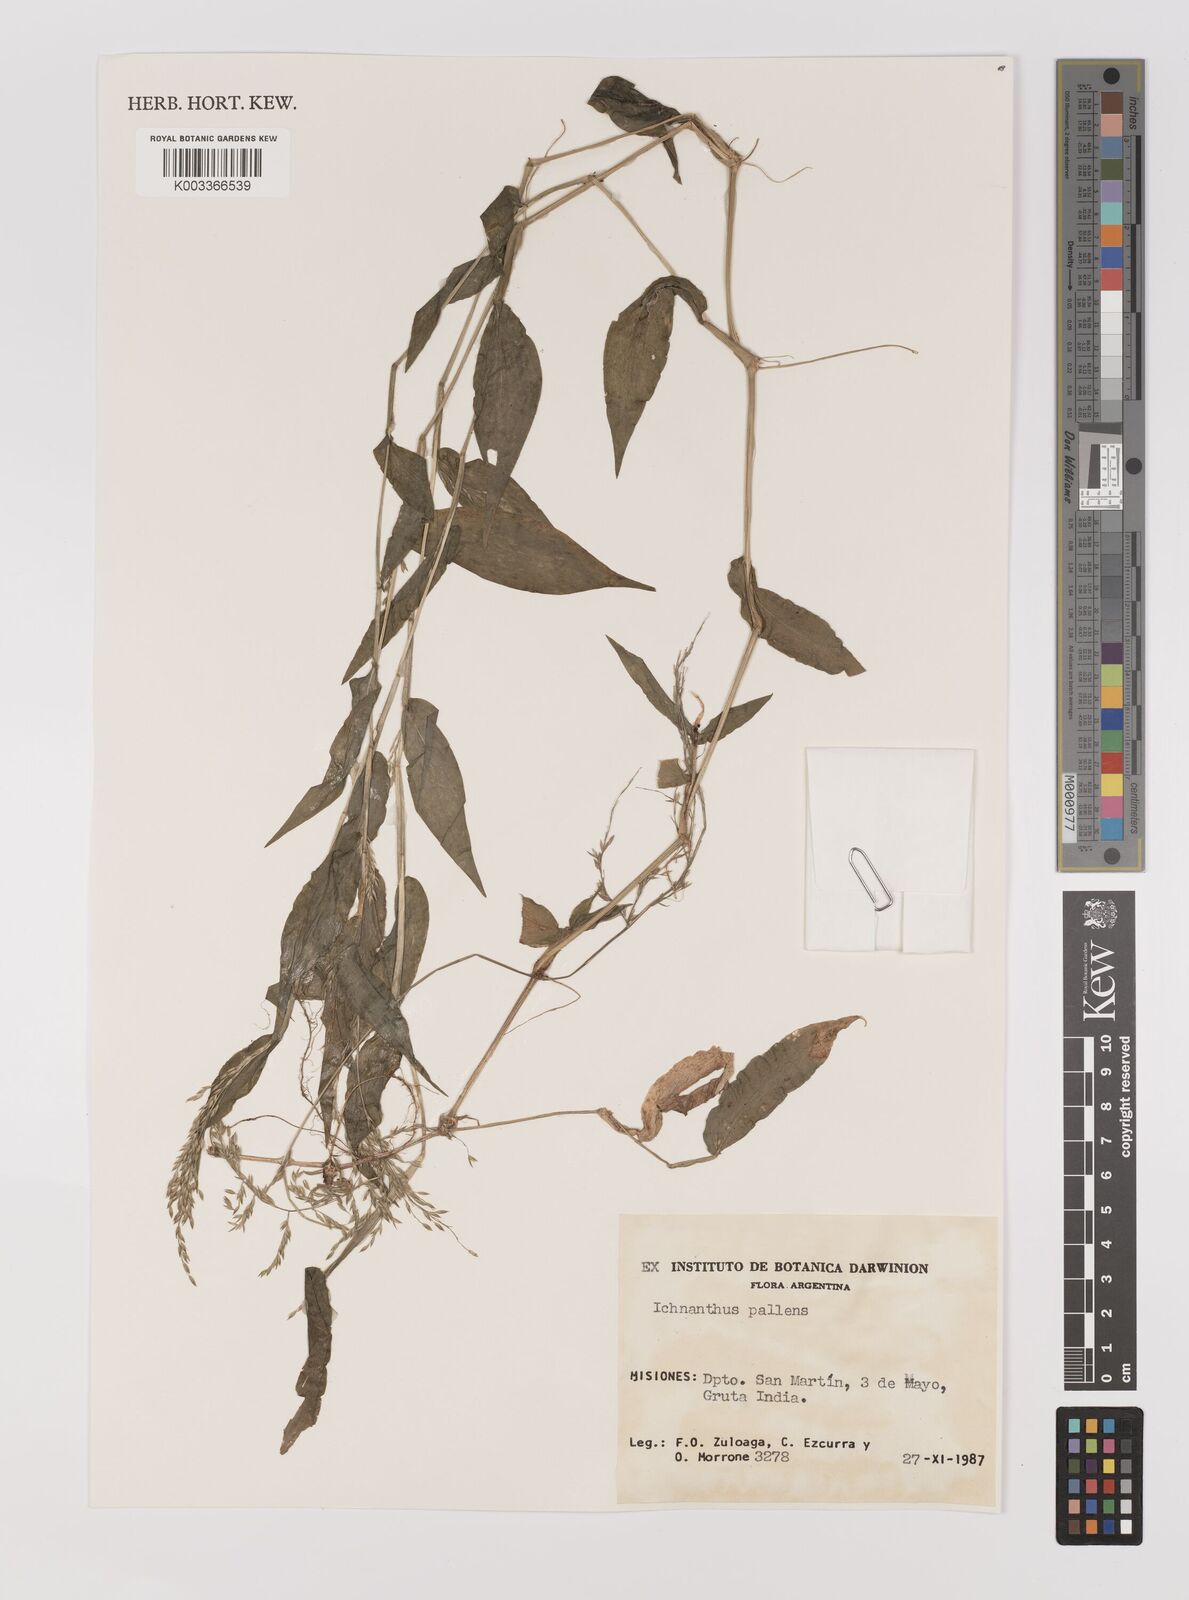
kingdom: Plantae
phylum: Tracheophyta
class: Liliopsida
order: Poales
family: Poaceae
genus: Ichnanthus
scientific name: Ichnanthus pallens
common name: Water grass
